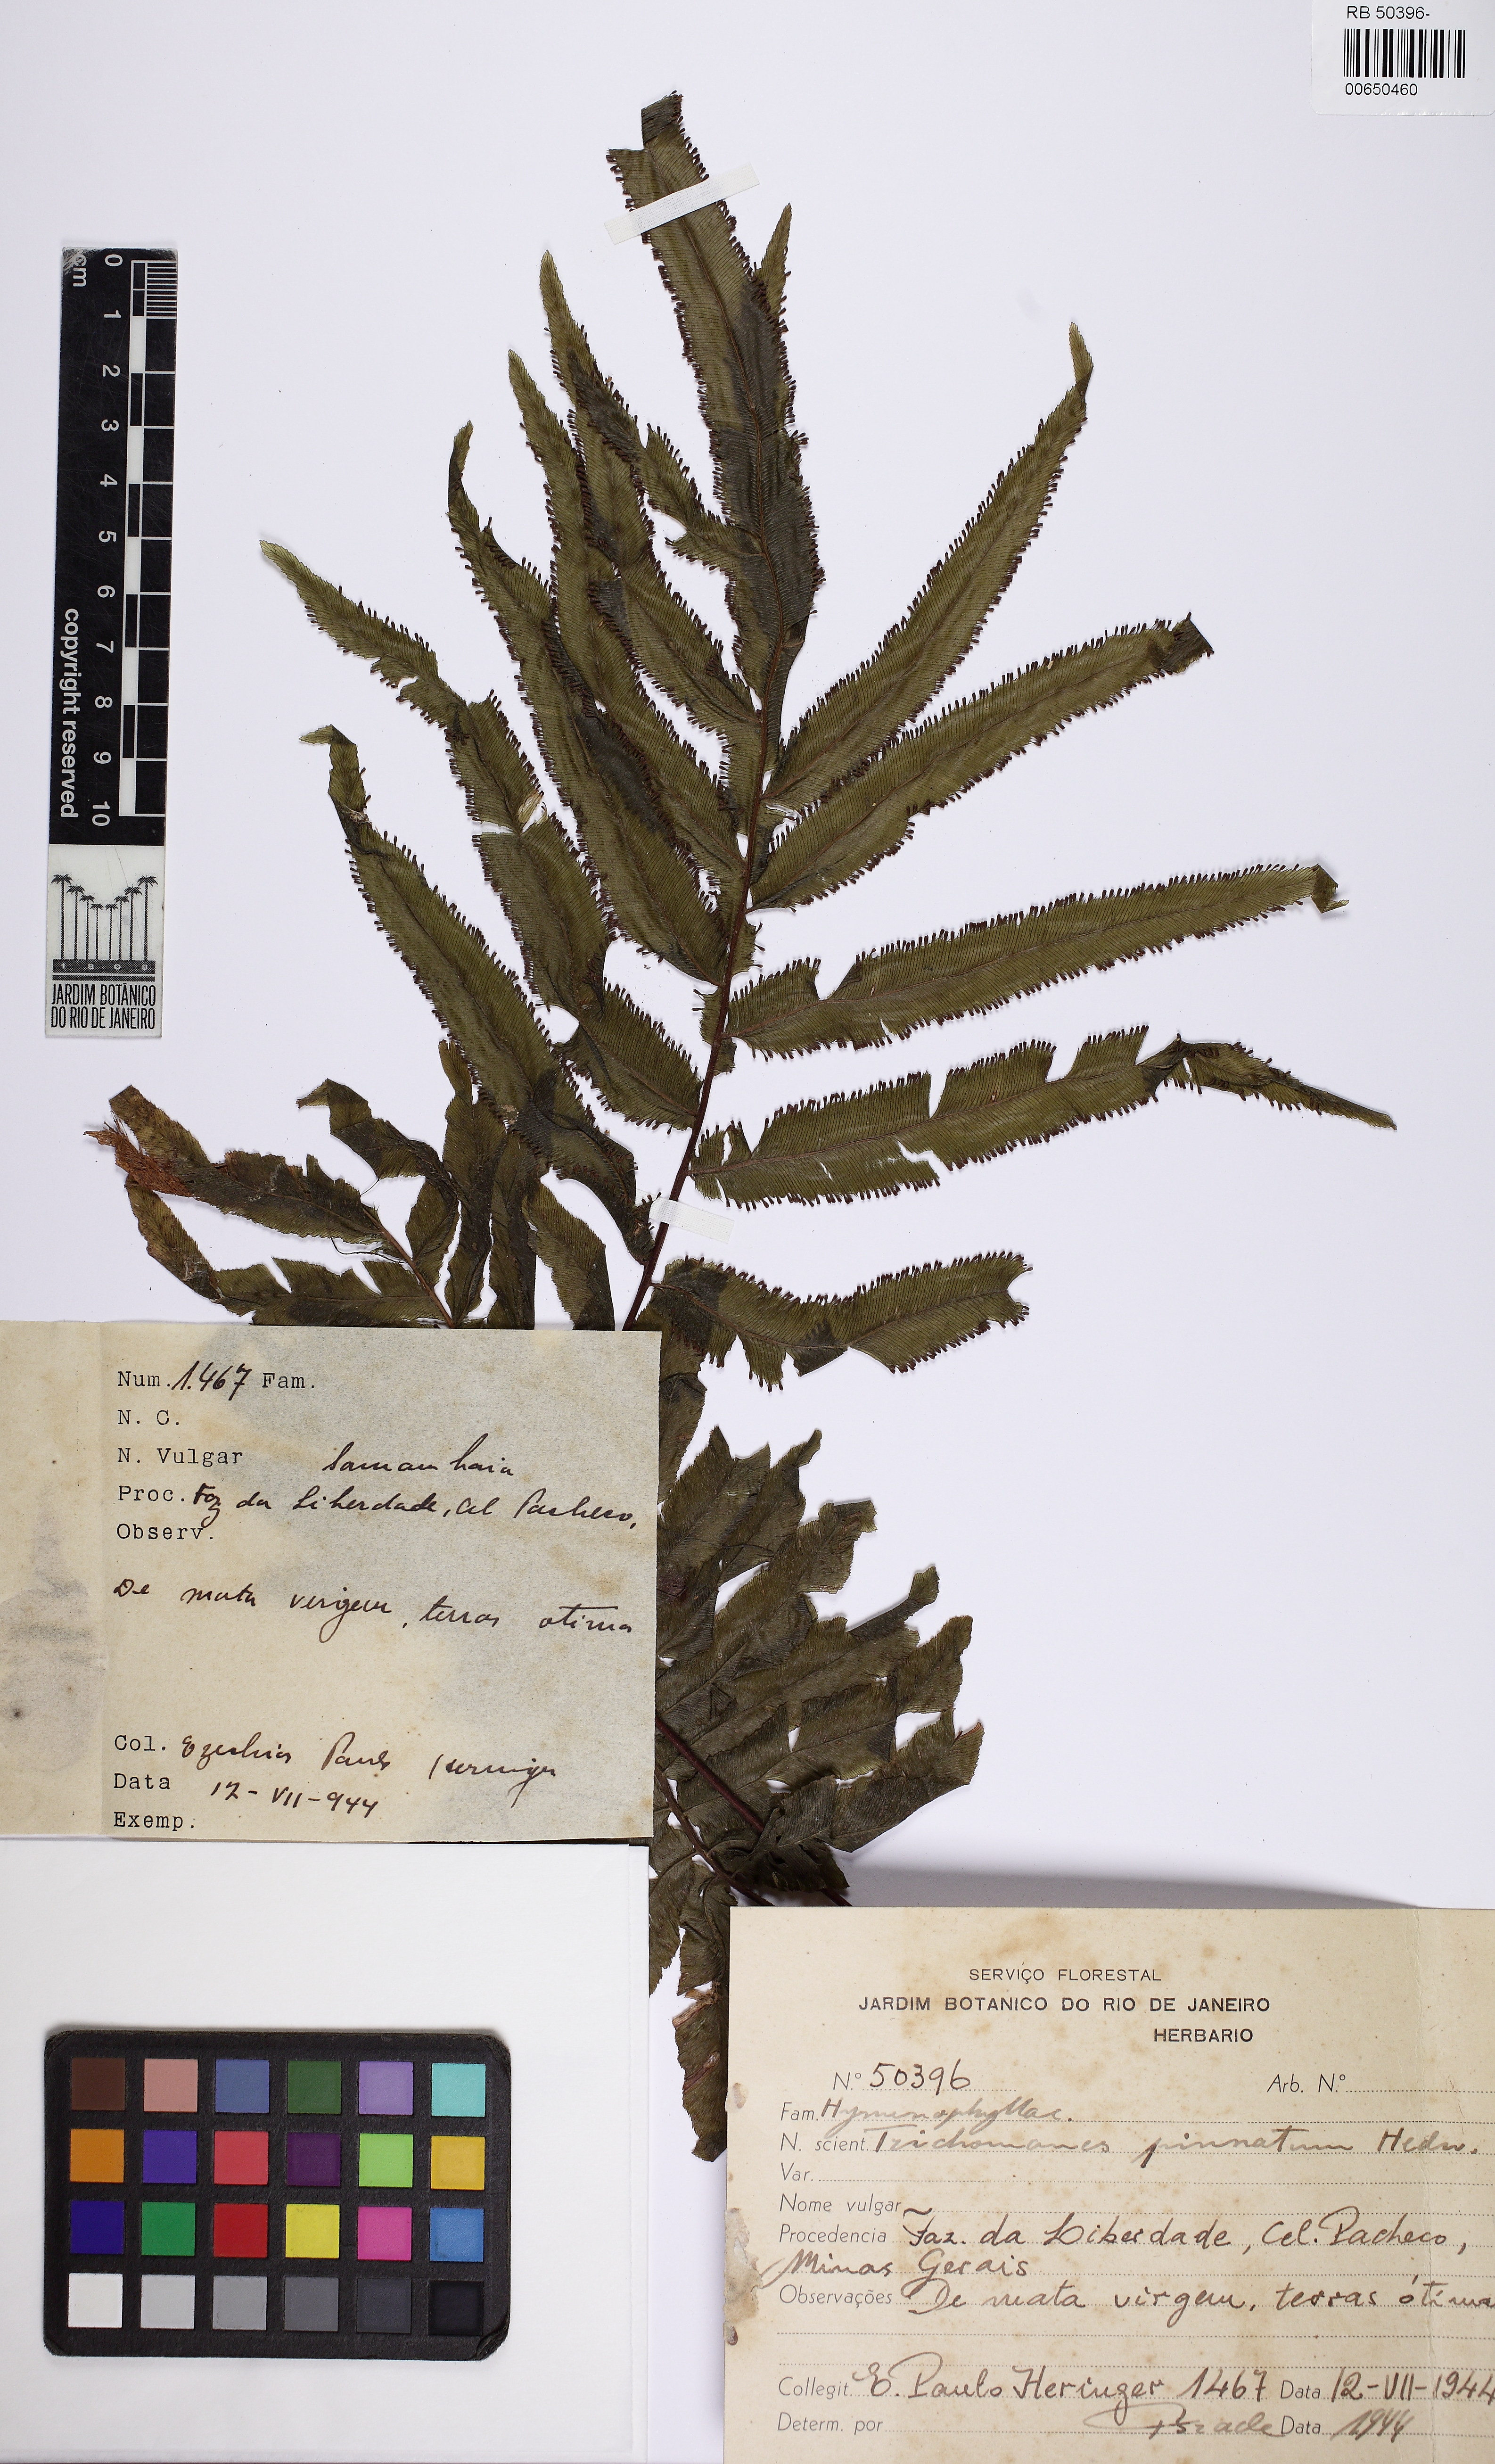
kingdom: Plantae
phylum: Tracheophyta
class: Polypodiopsida
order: Hymenophyllales
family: Hymenophyllaceae
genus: Trichomanes
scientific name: Trichomanes pinnatum
